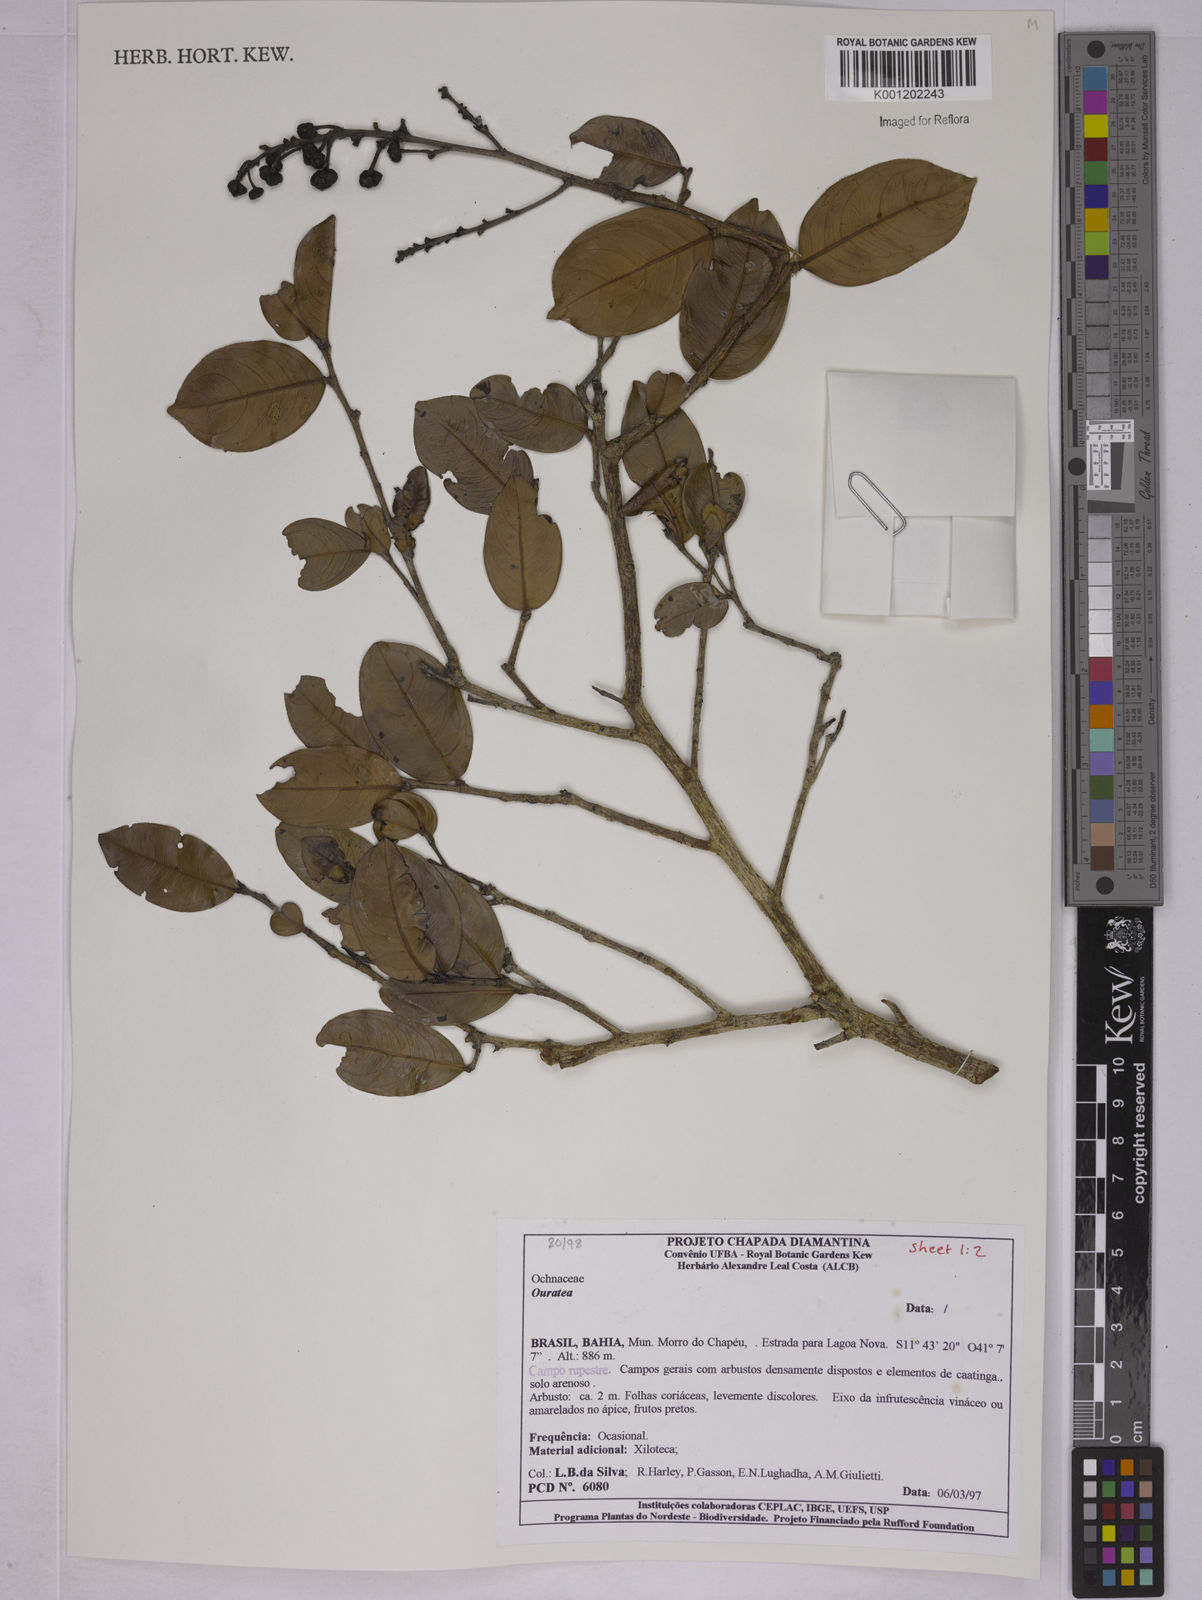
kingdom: Plantae
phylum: Tracheophyta
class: Magnoliopsida
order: Malpighiales
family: Ochnaceae
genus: Ouratea
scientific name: Ouratea
